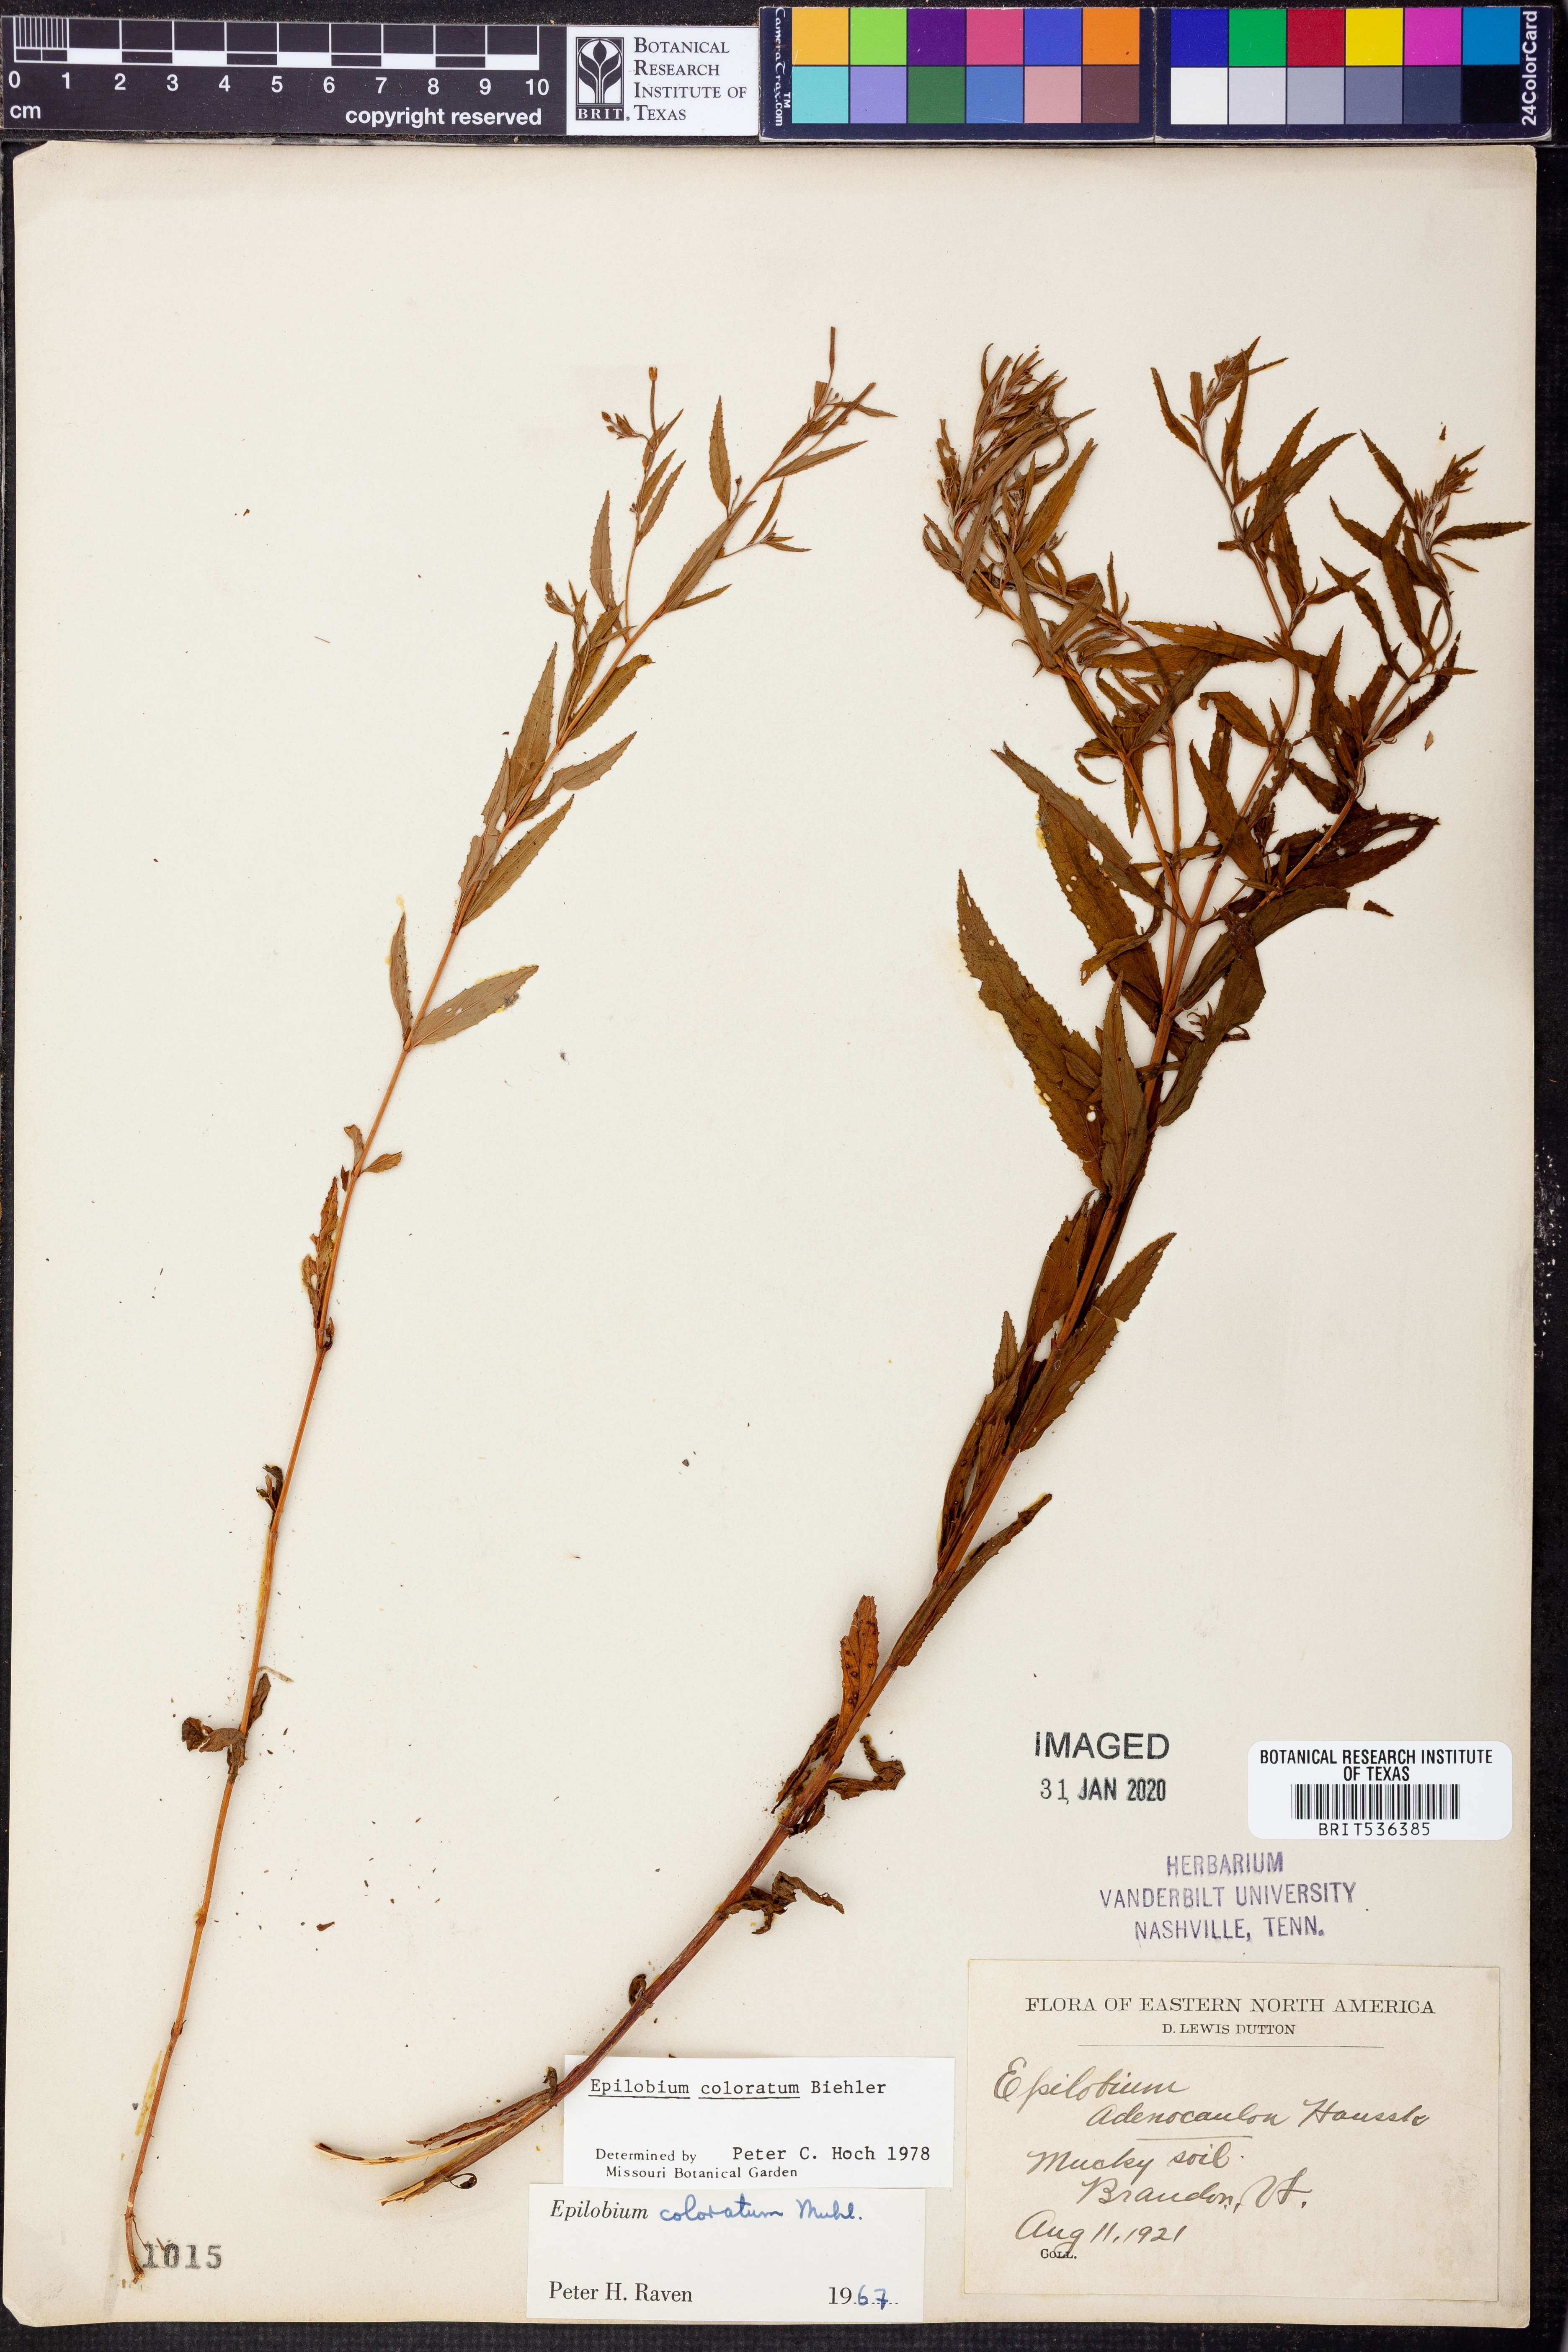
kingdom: Plantae
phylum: Tracheophyta
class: Magnoliopsida
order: Myrtales
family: Onagraceae
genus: Epilobium
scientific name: Epilobium coloratum
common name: Bronze willowherb
